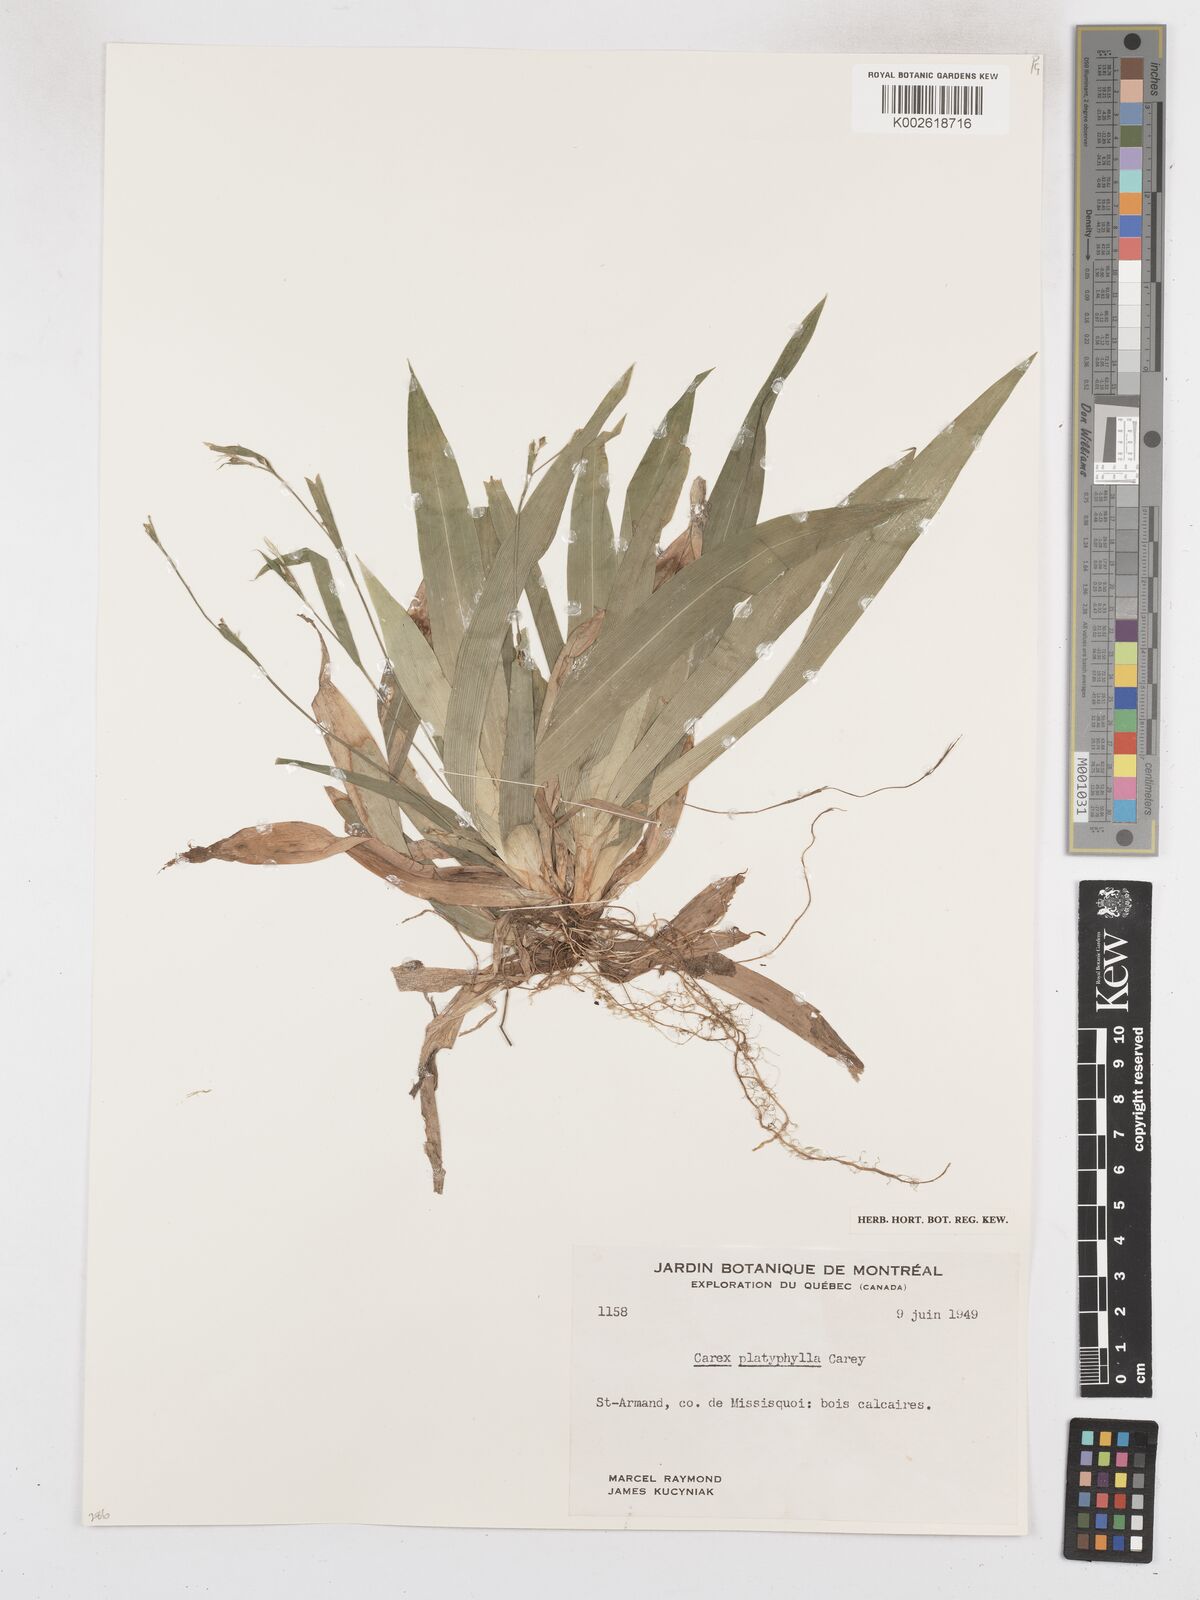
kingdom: Plantae
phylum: Tracheophyta
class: Liliopsida
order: Poales
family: Cyperaceae
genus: Carex
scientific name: Carex platyphylla
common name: Broad-leaved sedge
